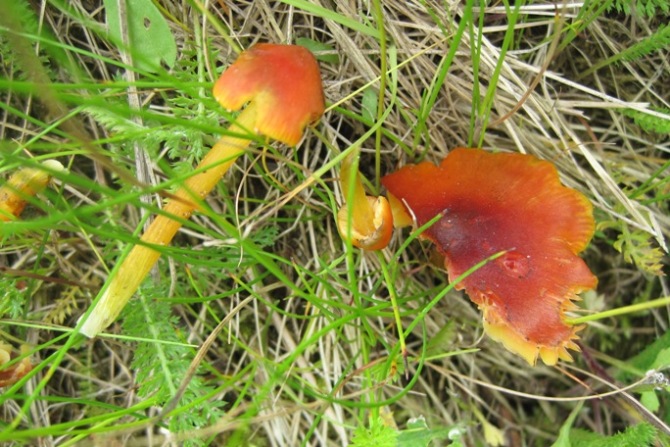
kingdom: Fungi
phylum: Basidiomycota
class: Agaricomycetes
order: Agaricales
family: Hygrophoraceae
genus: Hygrocybe
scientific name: Hygrocybe conica
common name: kegle-vokshat
